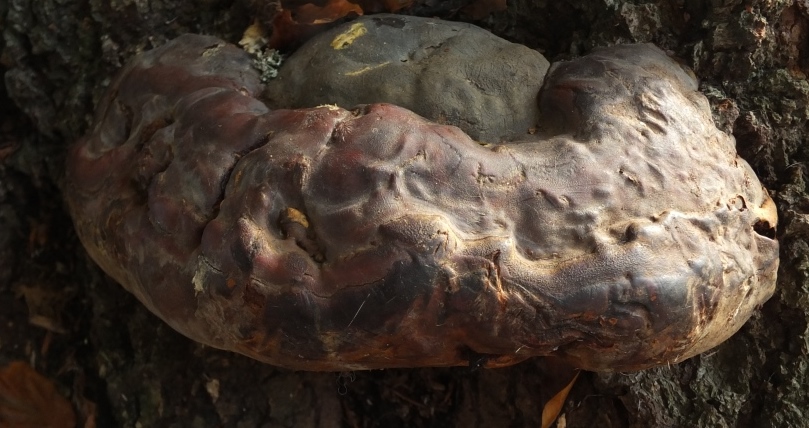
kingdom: Fungi
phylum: Basidiomycota
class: Agaricomycetes
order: Polyporales
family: Polyporaceae
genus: Ganoderma
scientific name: Ganoderma pfeifferi
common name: kobberrød lakporesvamp
